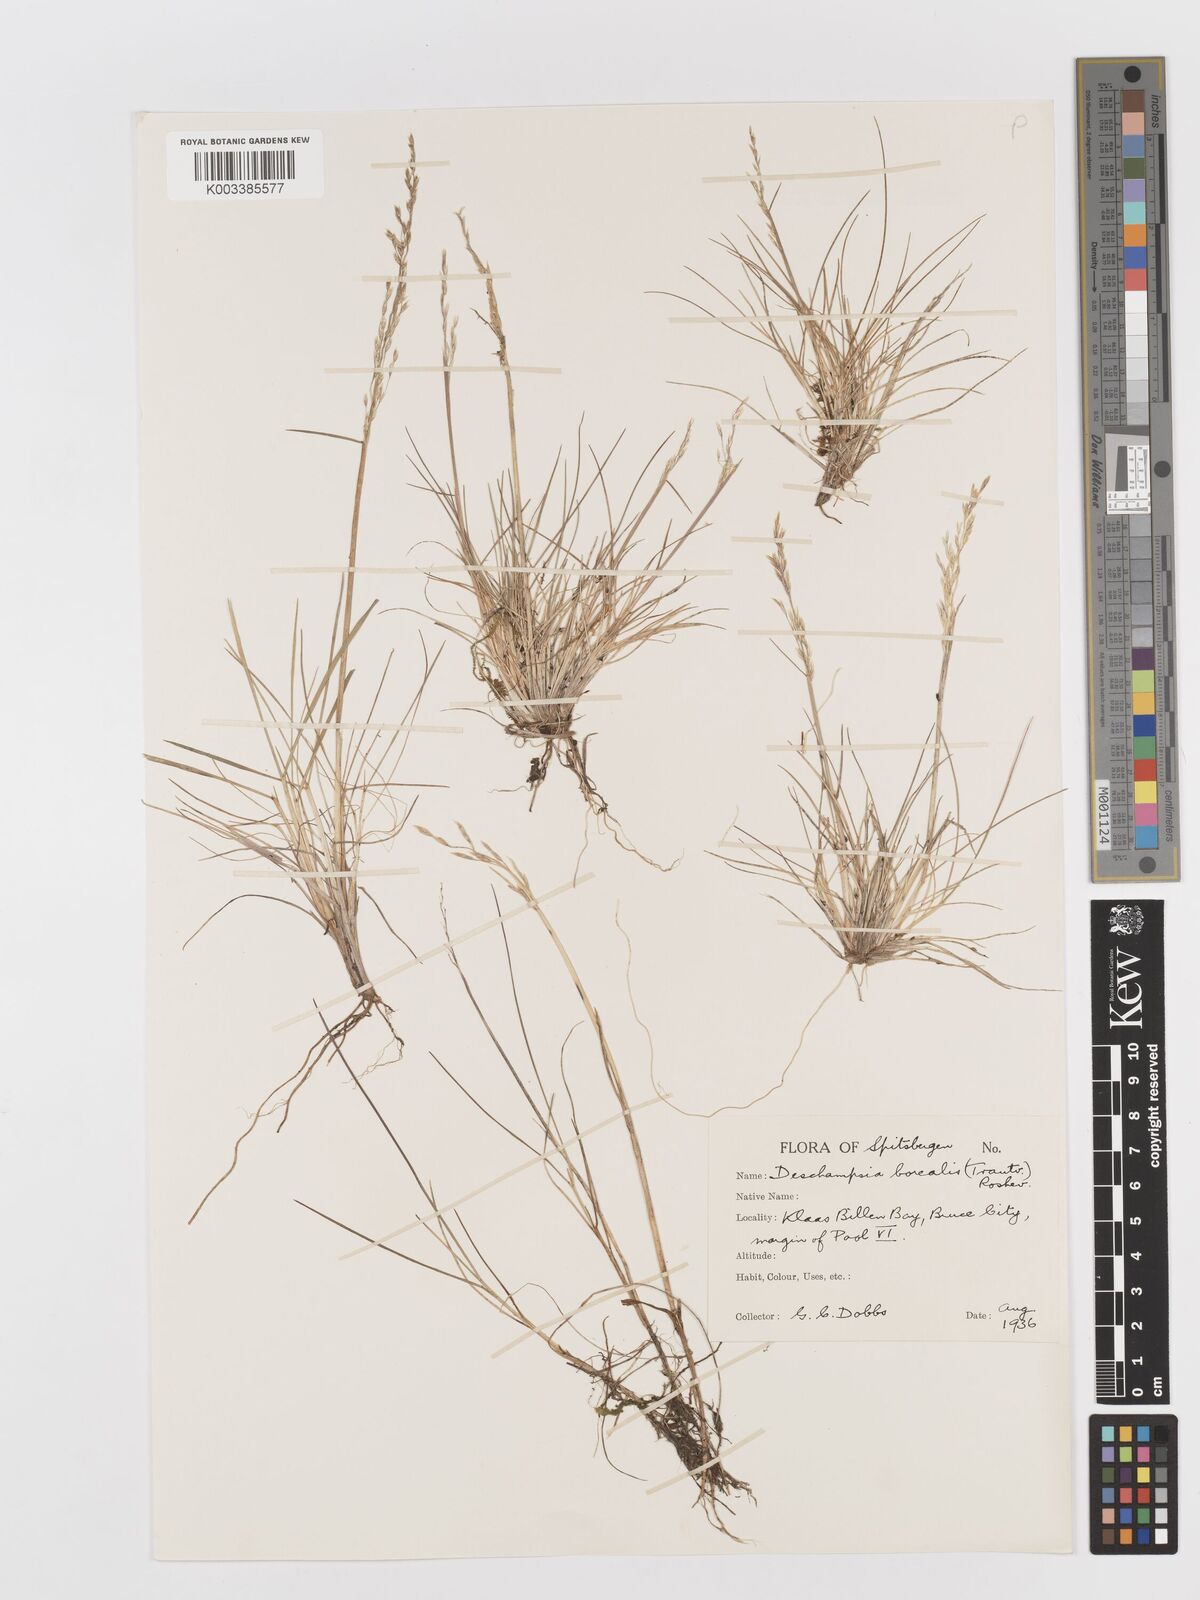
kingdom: Plantae
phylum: Tracheophyta
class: Liliopsida
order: Poales
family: Poaceae
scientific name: Poaceae
